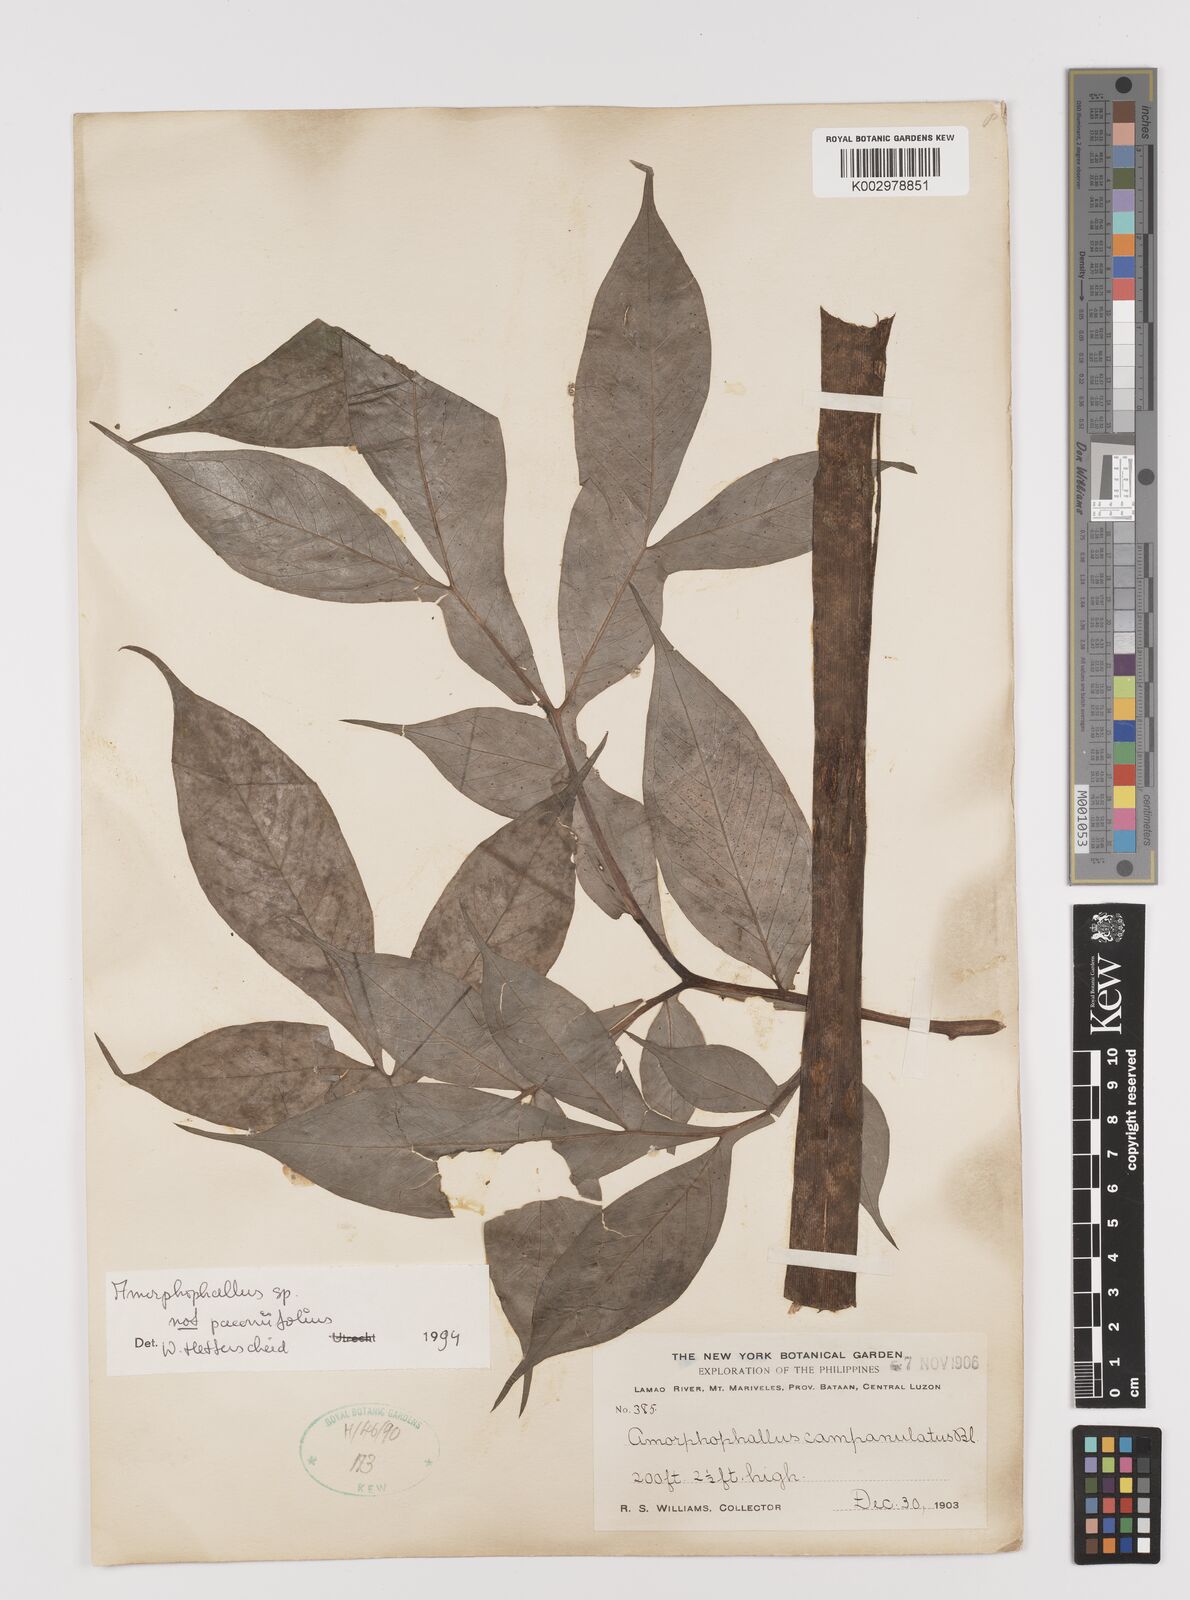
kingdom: Plantae
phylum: Tracheophyta
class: Liliopsida
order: Alismatales
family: Araceae
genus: Amorphophallus
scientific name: Amorphophallus
